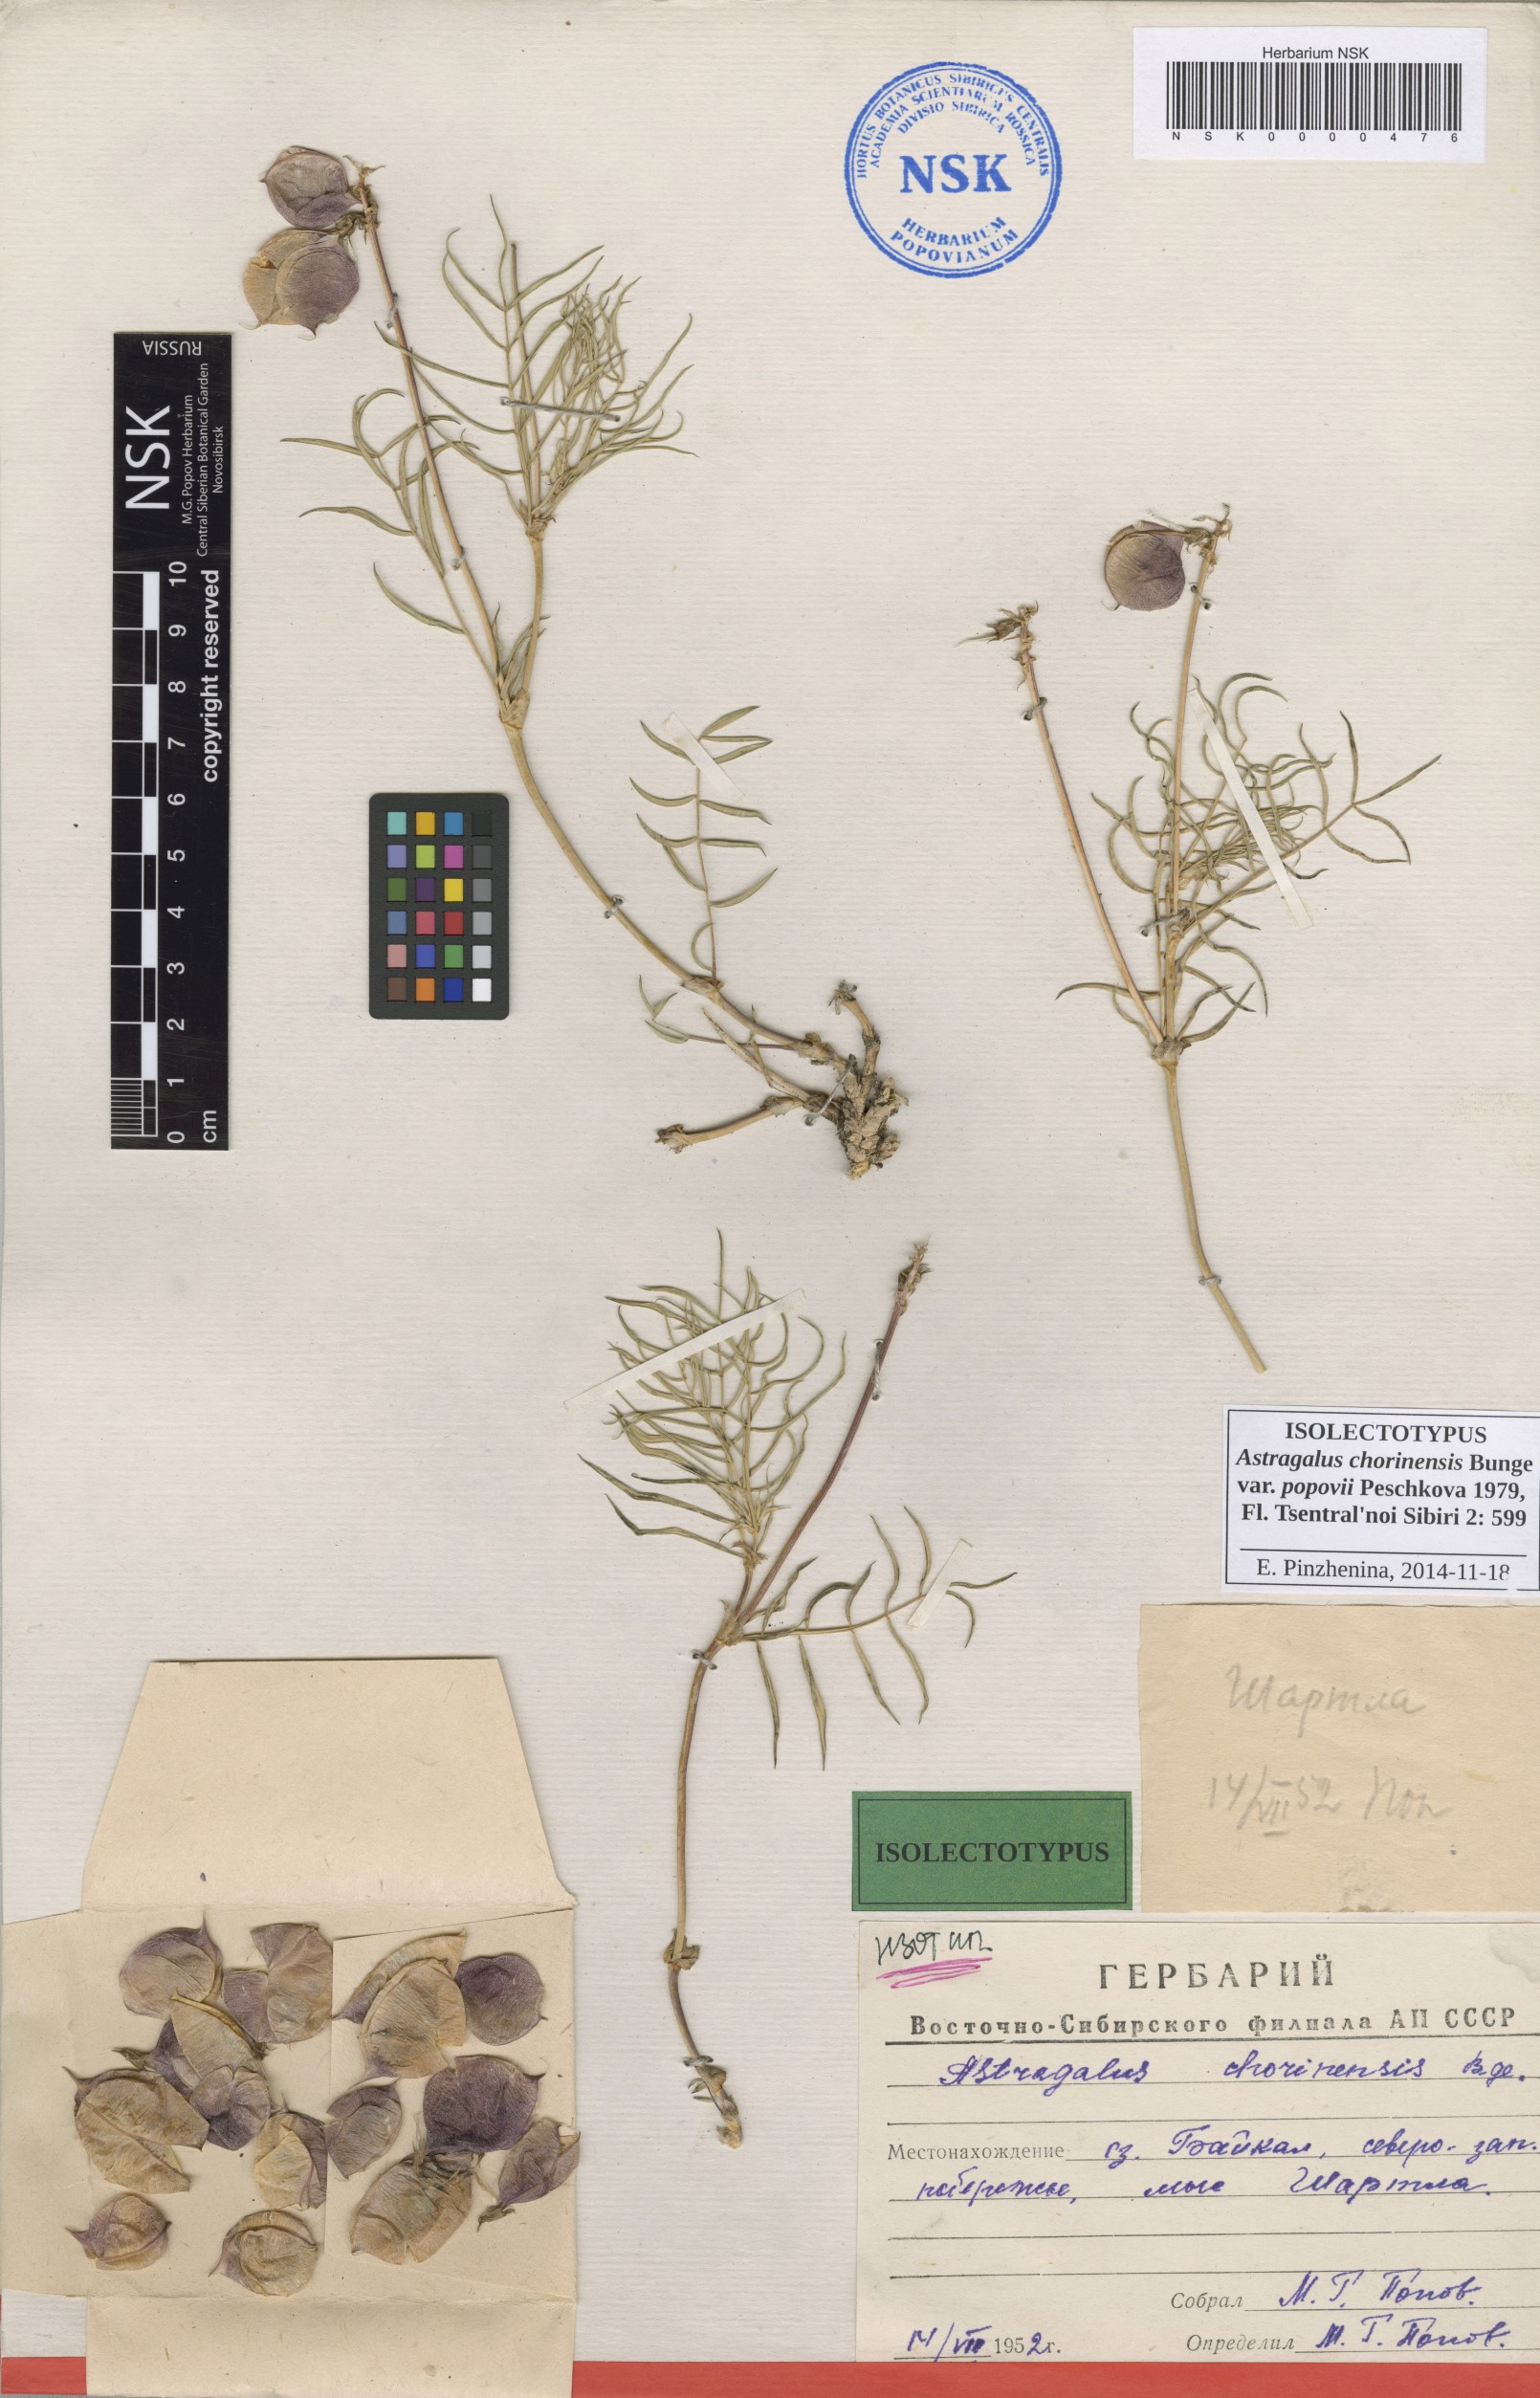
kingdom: Plantae
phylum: Tracheophyta
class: Magnoliopsida
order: Fabales
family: Fabaceae
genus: Astragalus
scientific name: Astragalus chorinensis
